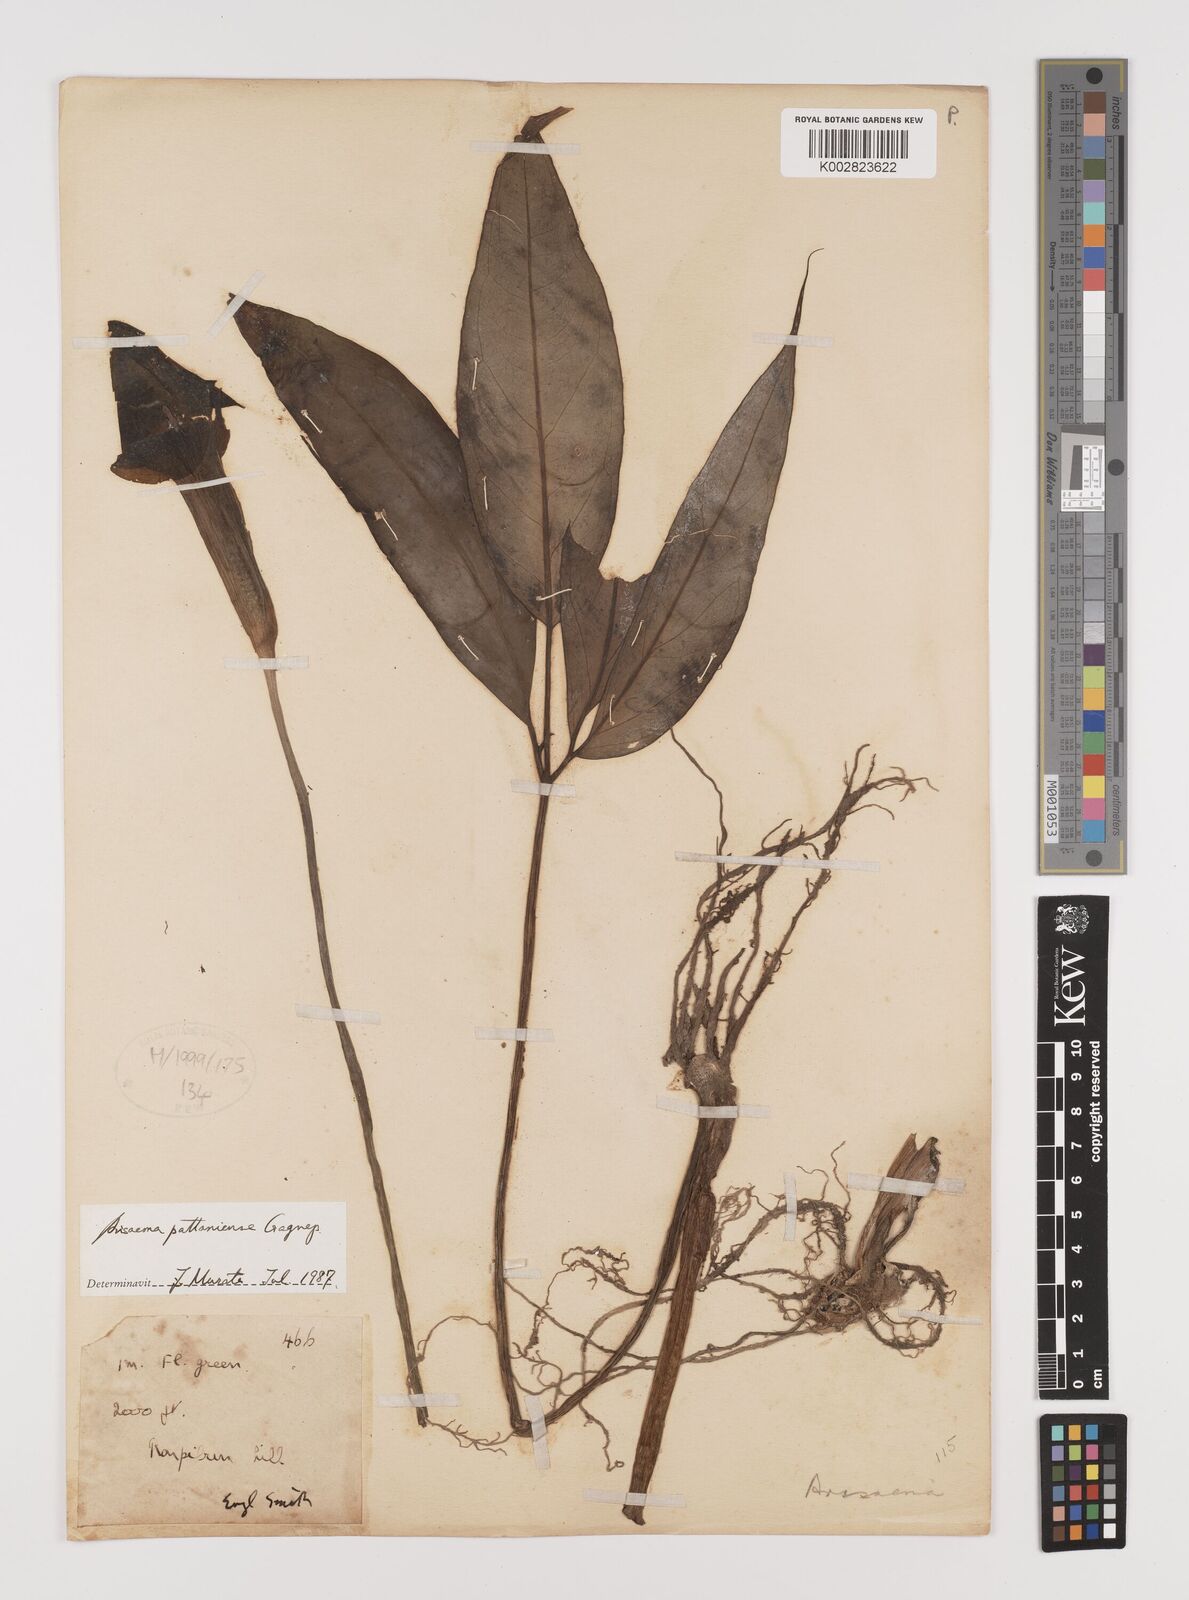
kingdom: Plantae
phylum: Tracheophyta
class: Liliopsida
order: Alismatales
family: Araceae
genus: Arisaema
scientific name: Arisaema pattaniense
